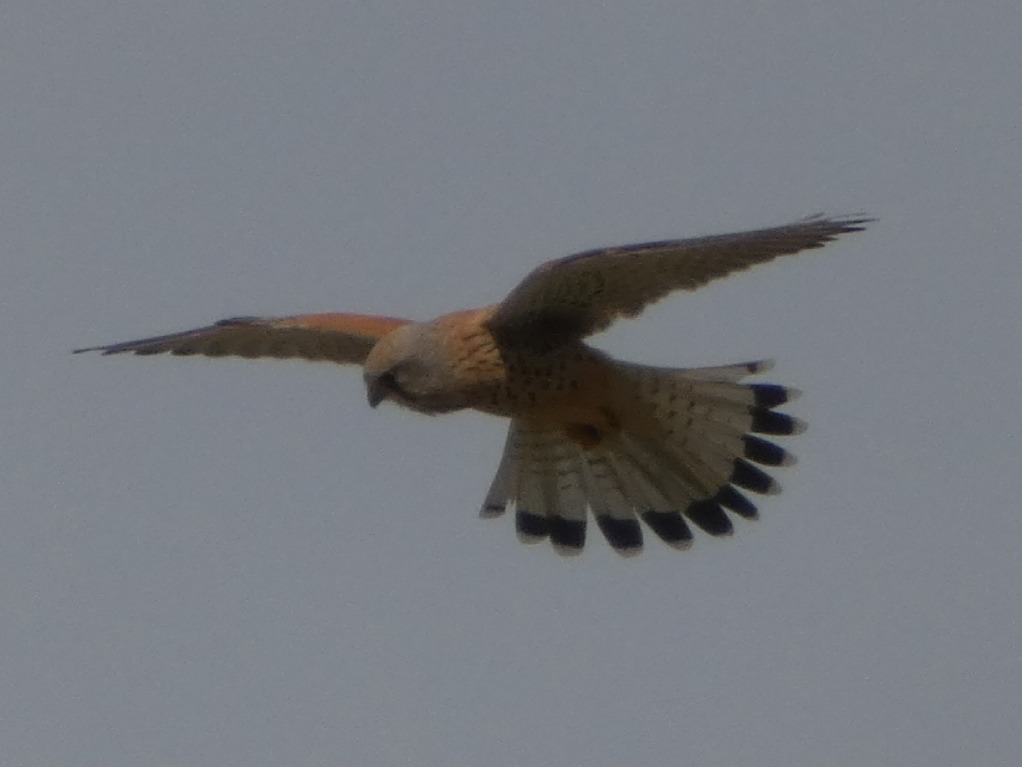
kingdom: Animalia
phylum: Chordata
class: Aves
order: Falconiformes
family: Falconidae
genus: Falco
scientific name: Falco tinnunculus
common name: Tårnfalk
